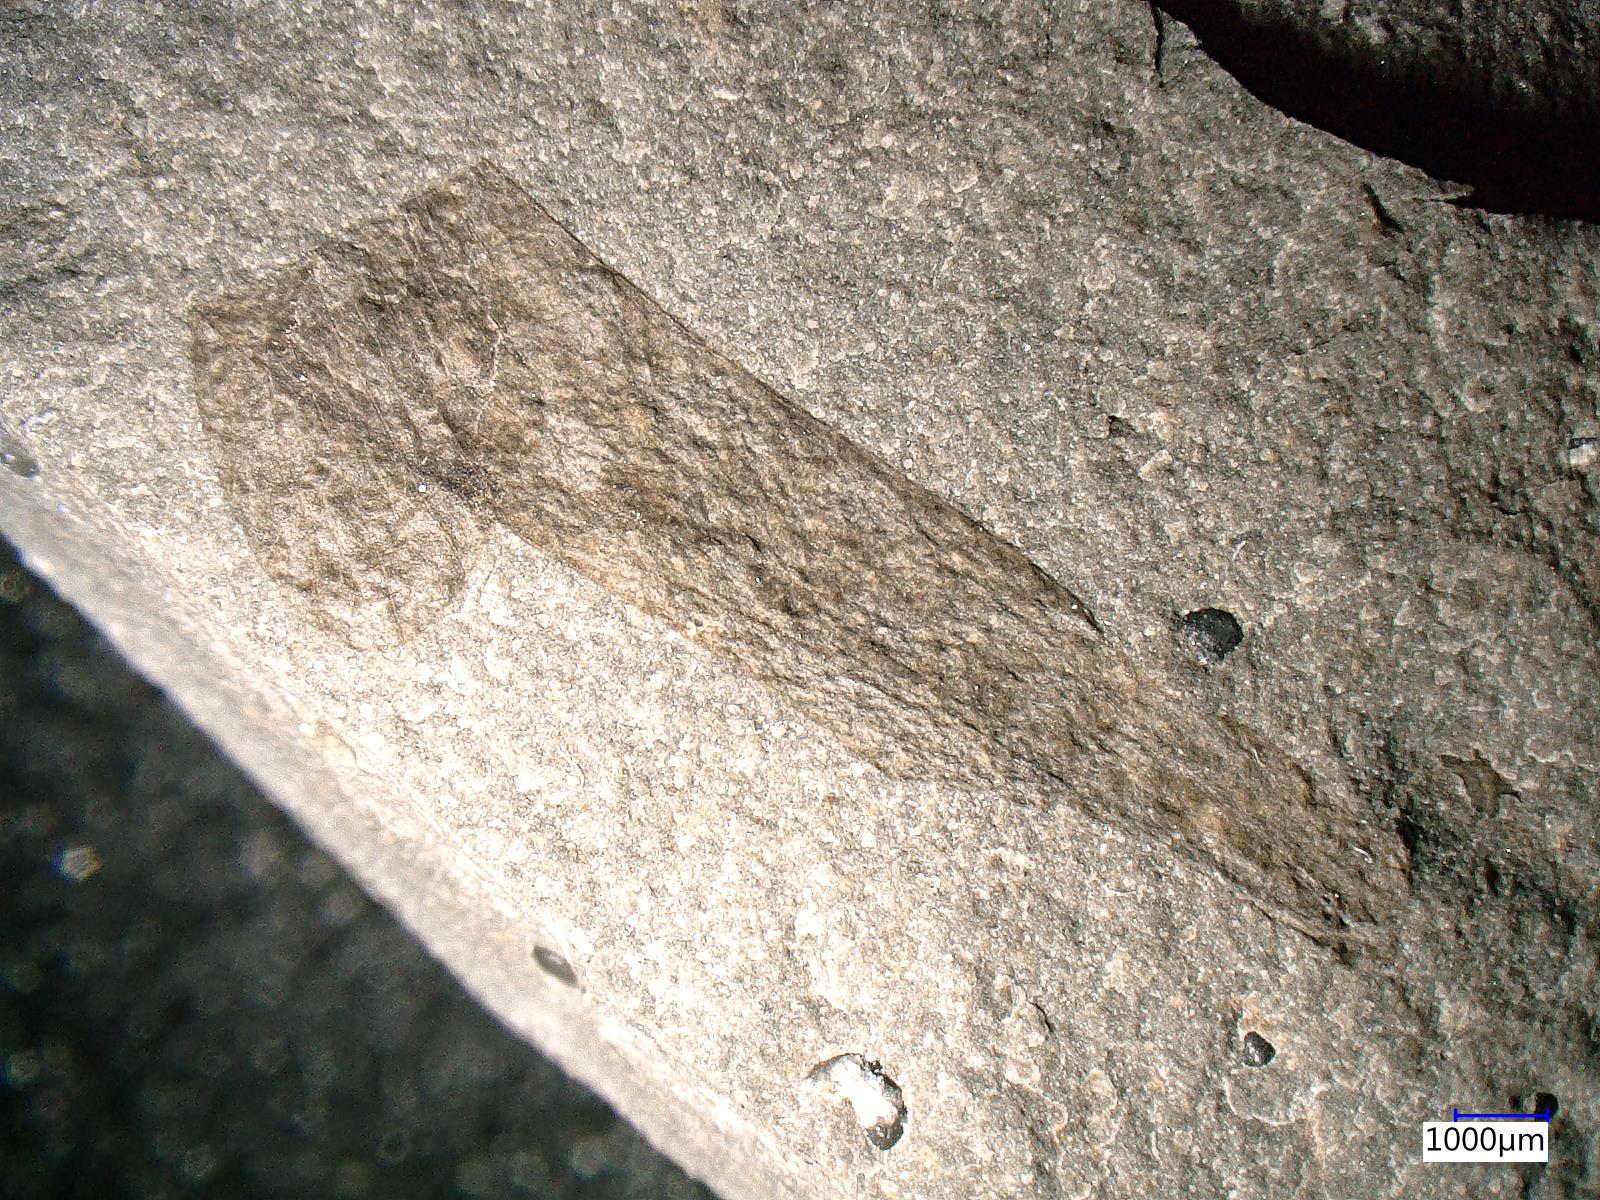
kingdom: Animalia
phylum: Arthropoda
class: Insecta
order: Orthoptera
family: Locustopsidae
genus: Locustopsis
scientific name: Locustopsis
